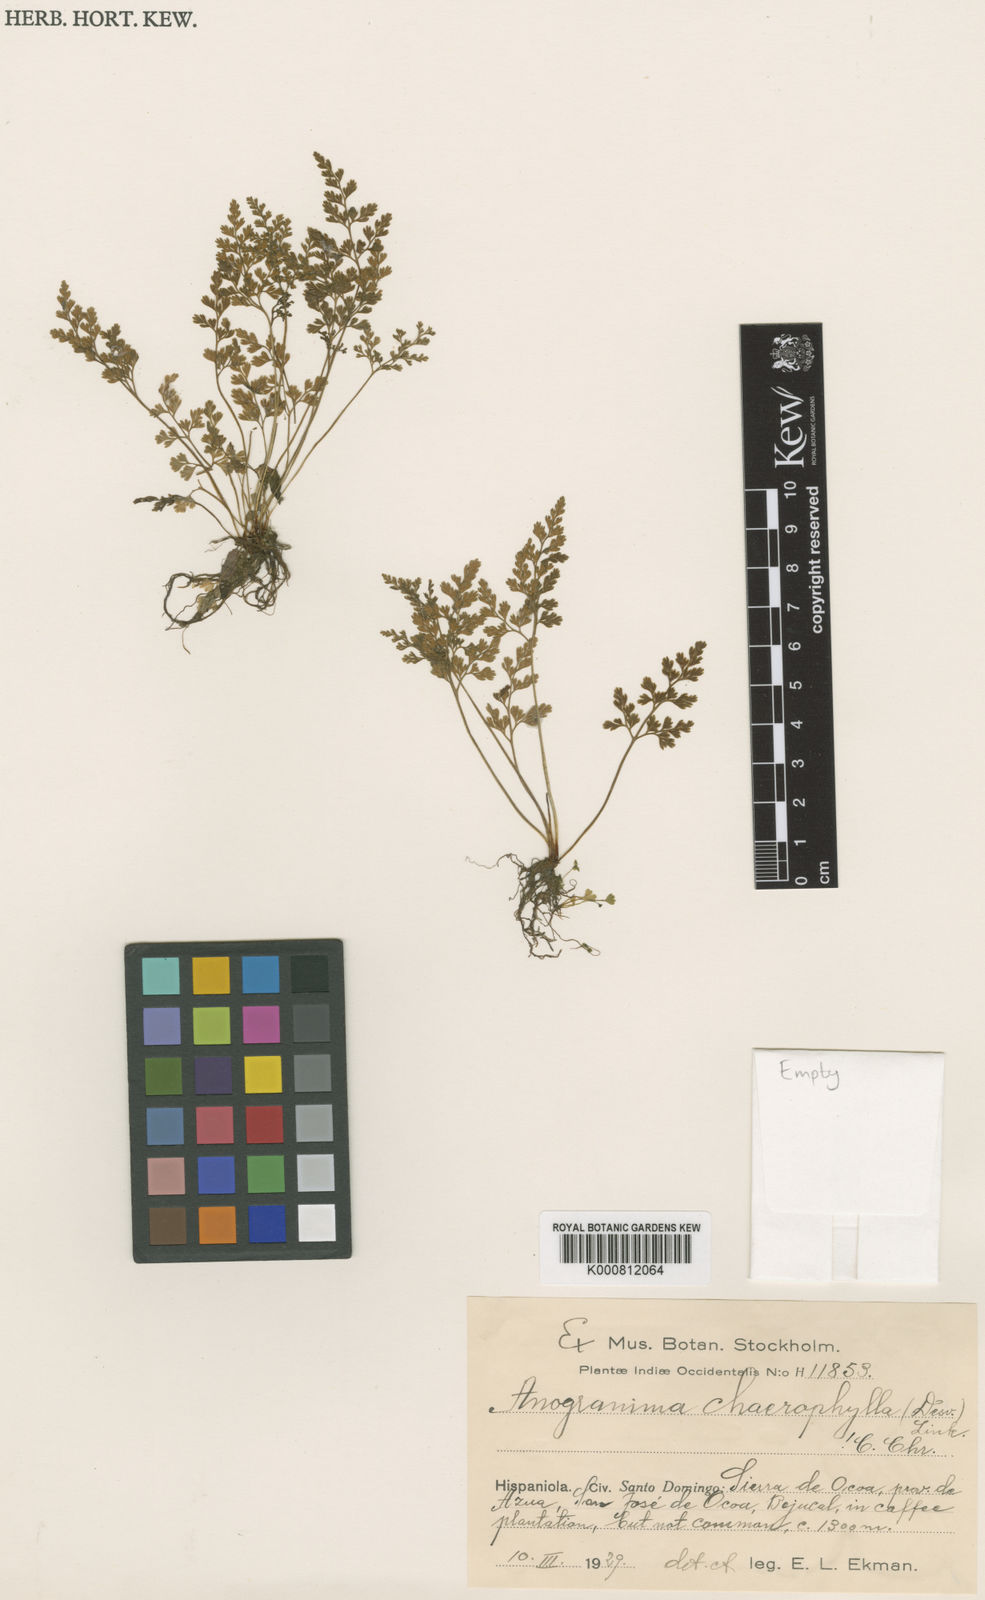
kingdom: Plantae
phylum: Tracheophyta
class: Polypodiopsida
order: Polypodiales
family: Pteridaceae
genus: Gastoniella
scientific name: Gastoniella chaerophylla
